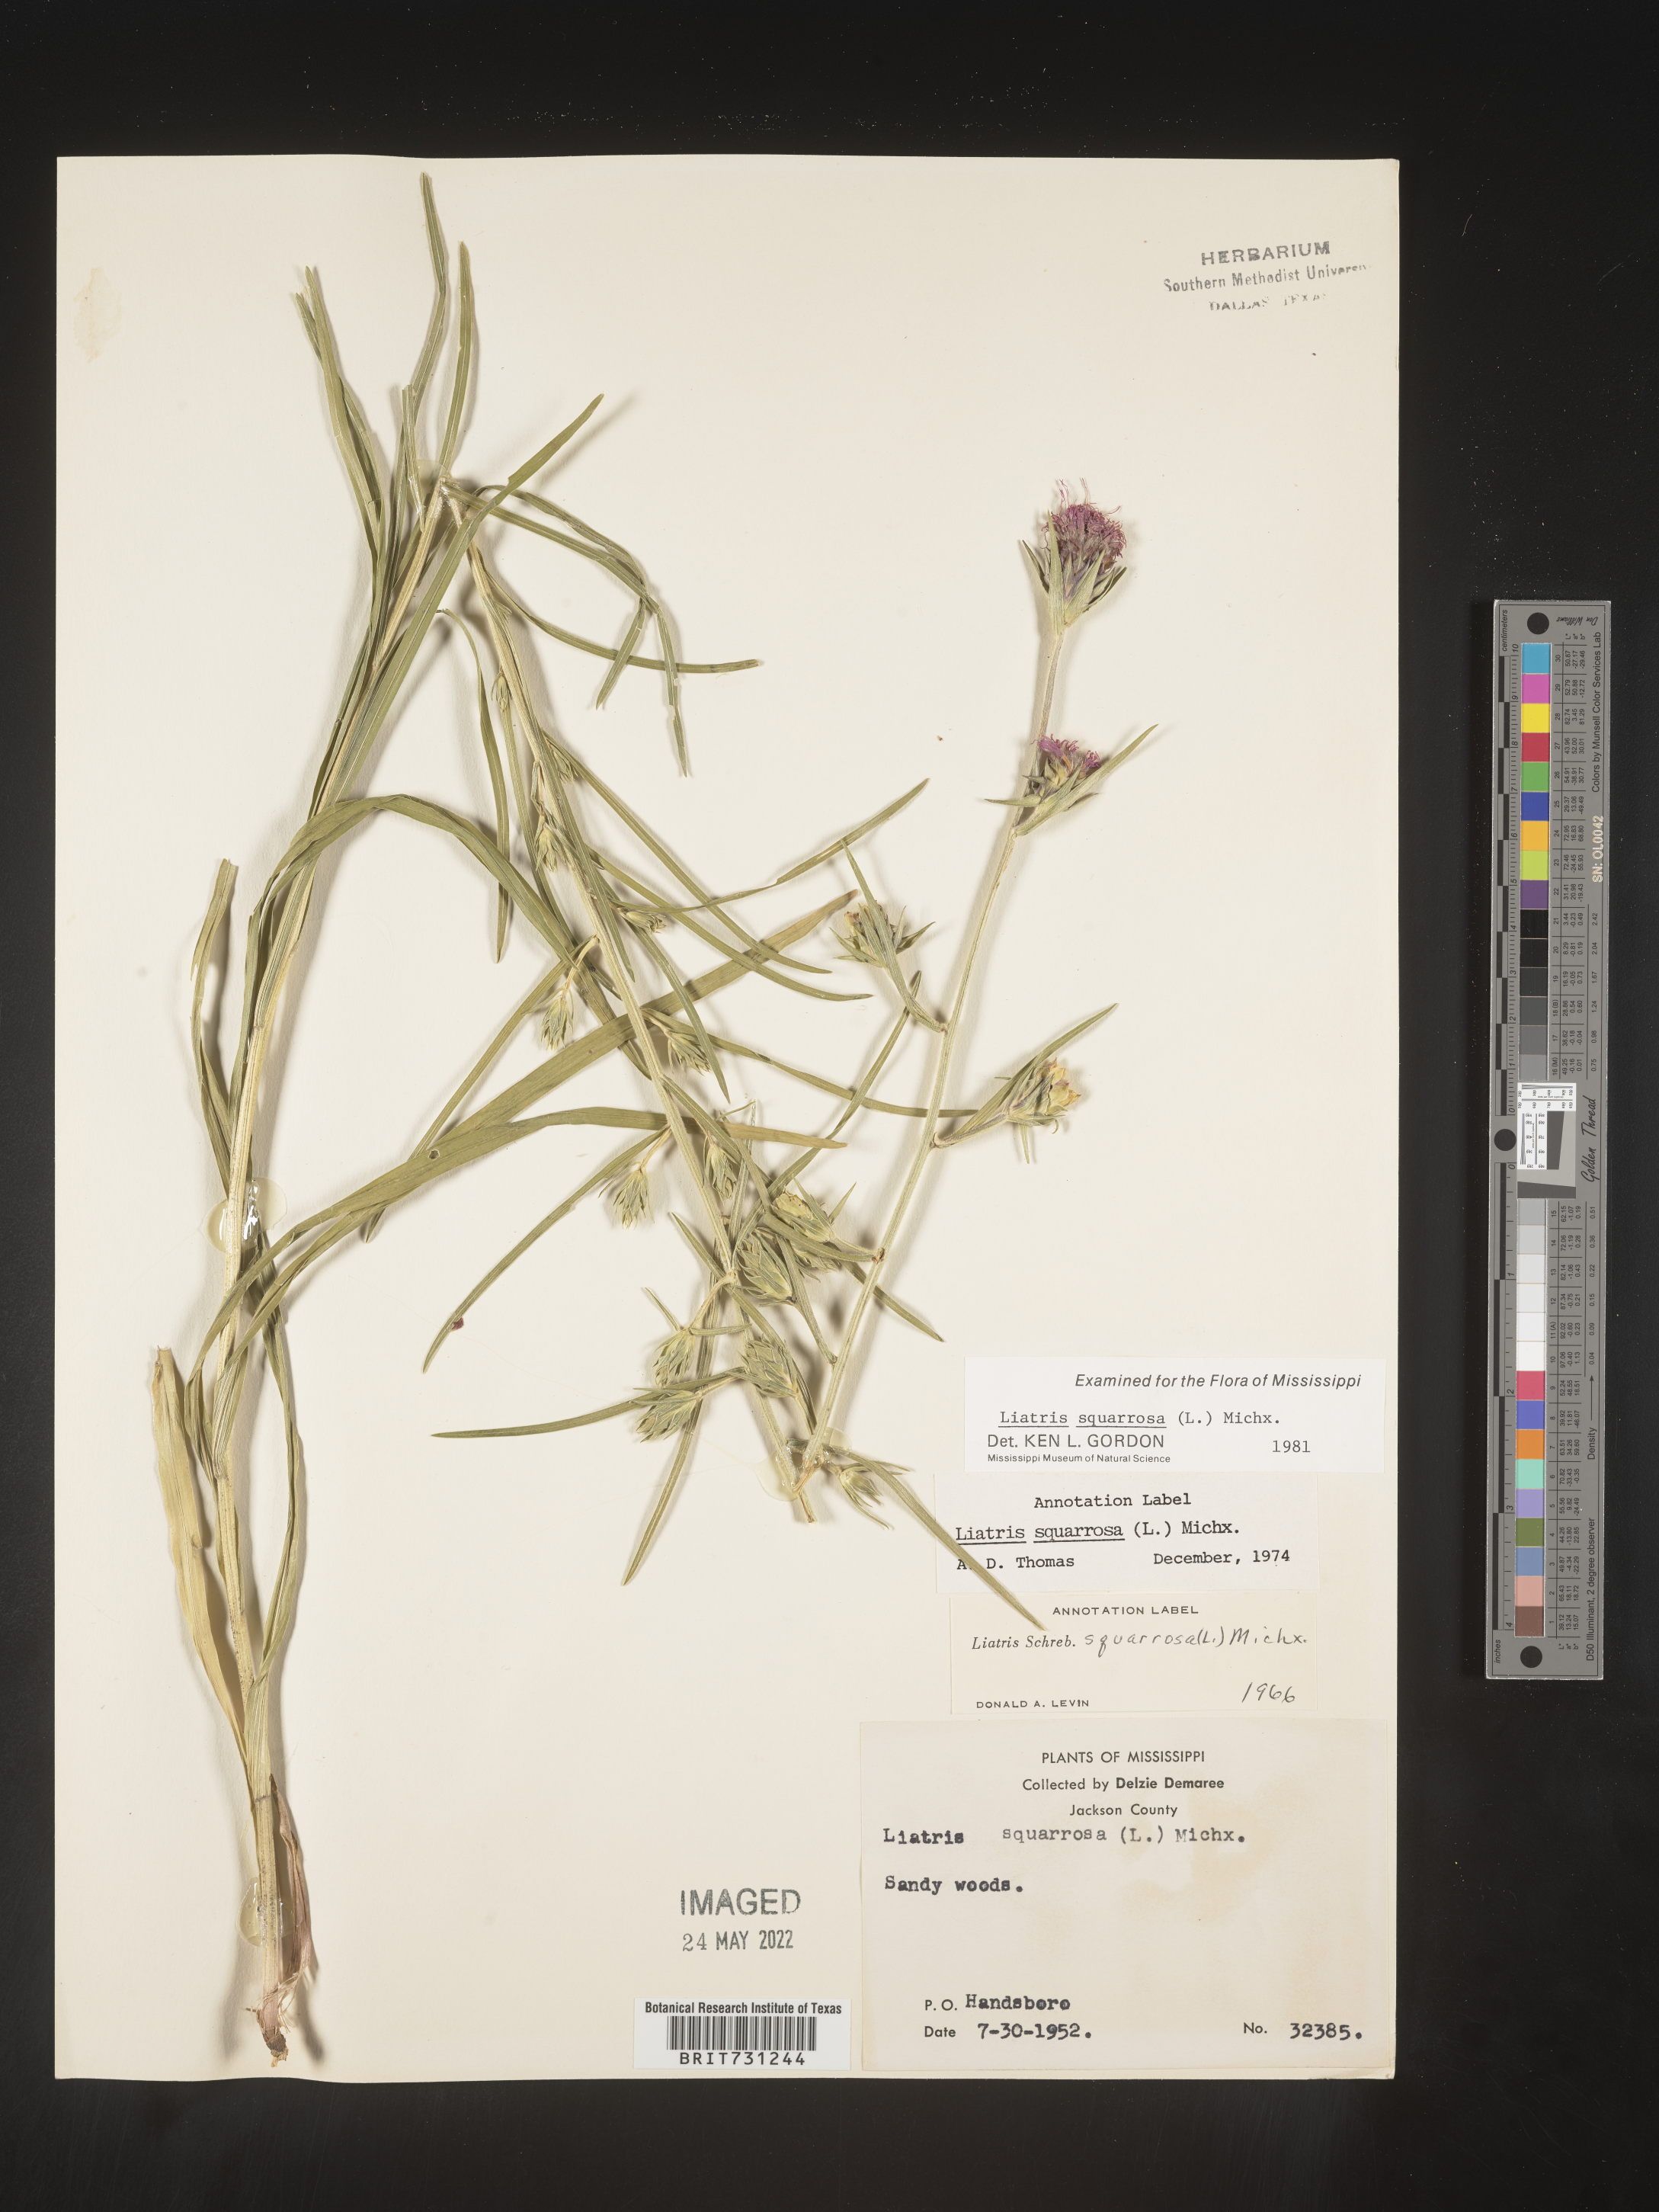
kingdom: Plantae
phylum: Tracheophyta
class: Magnoliopsida
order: Asterales
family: Asteraceae
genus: Liatris
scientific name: Liatris squarrosa
